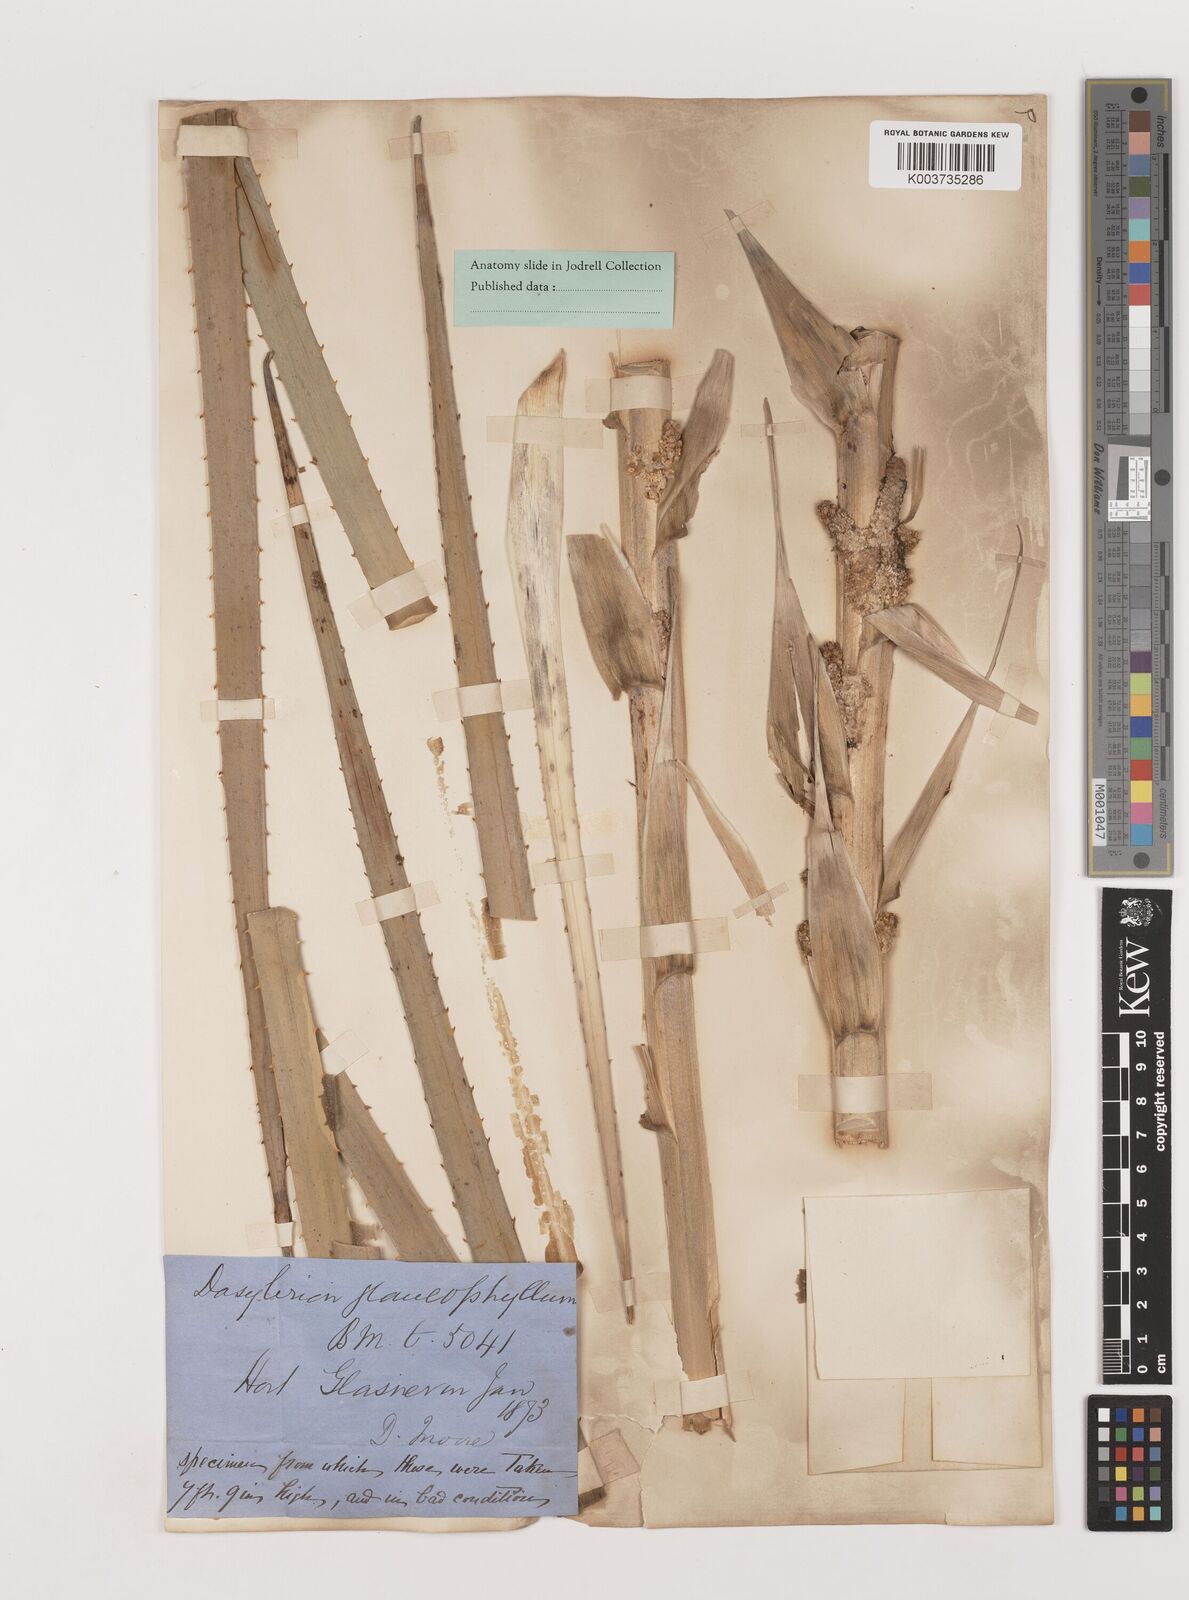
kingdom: Plantae
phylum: Tracheophyta
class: Liliopsida
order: Asparagales
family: Asparagaceae
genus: Dasylirion
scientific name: Dasylirion glaucophyllum
